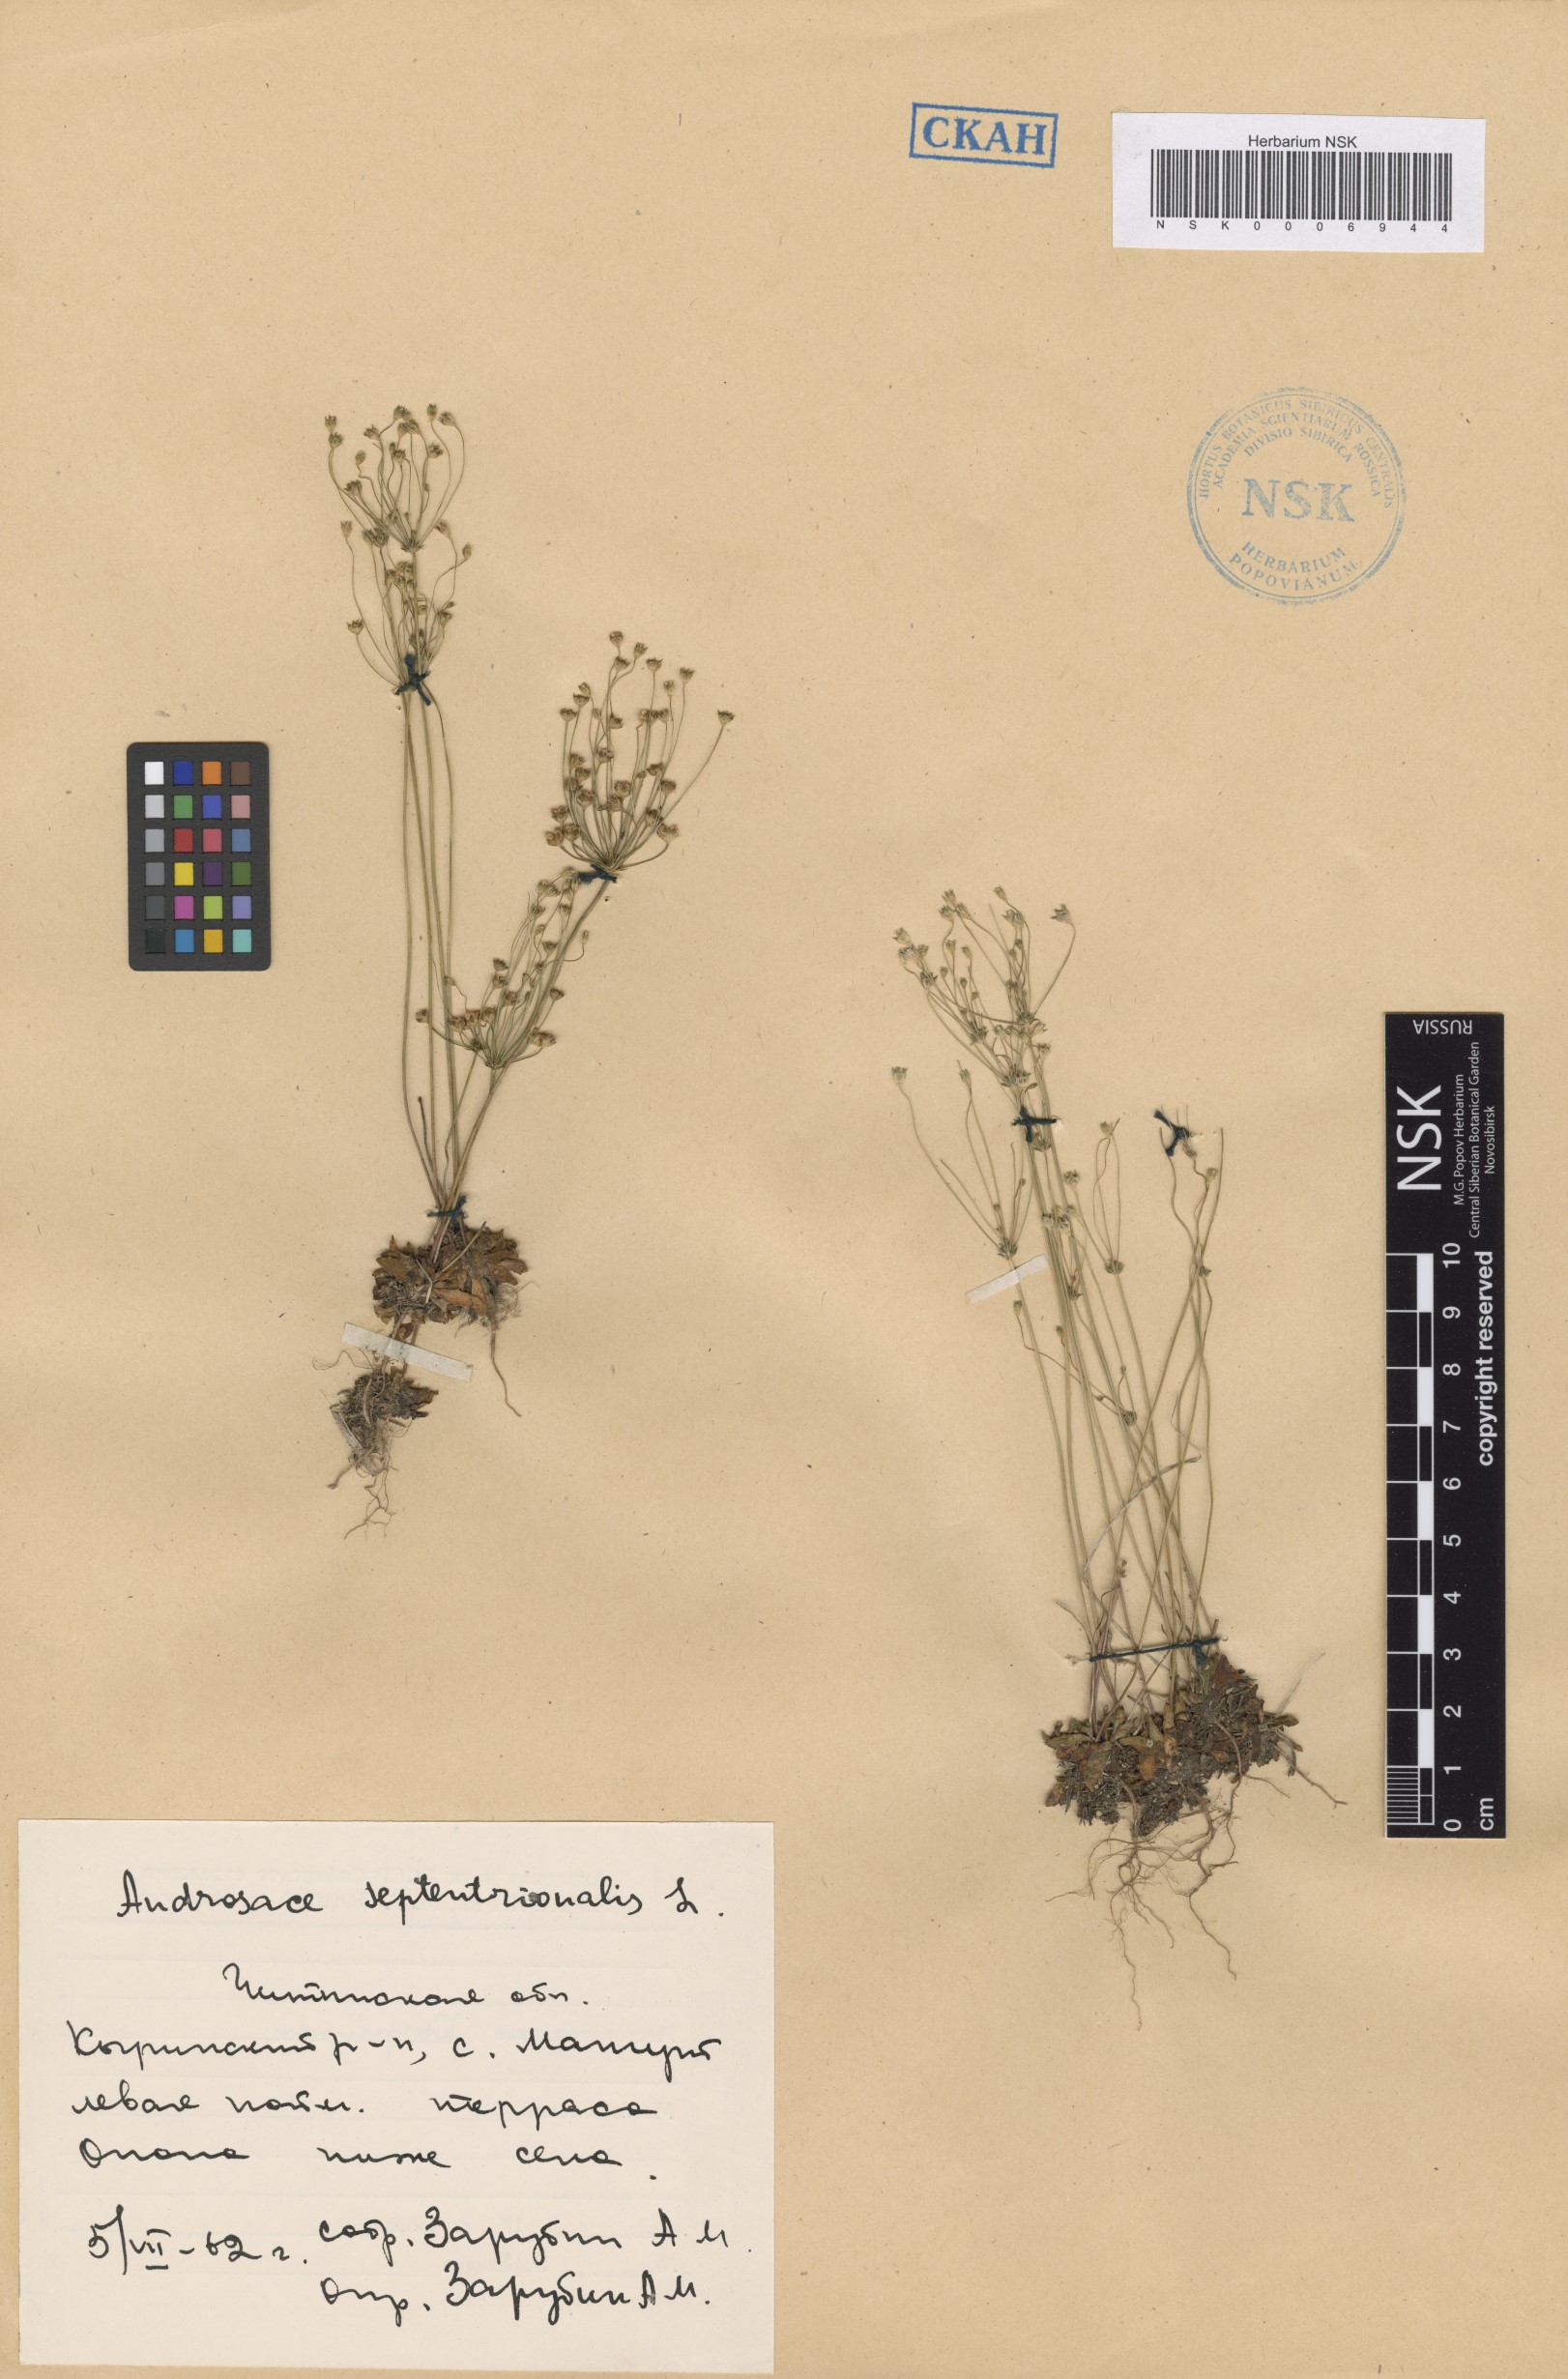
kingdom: Plantae
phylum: Tracheophyta
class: Magnoliopsida
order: Ericales
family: Primulaceae
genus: Androsace
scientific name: Androsace septentrionalis
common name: Hairy northern fairy-candelabra
